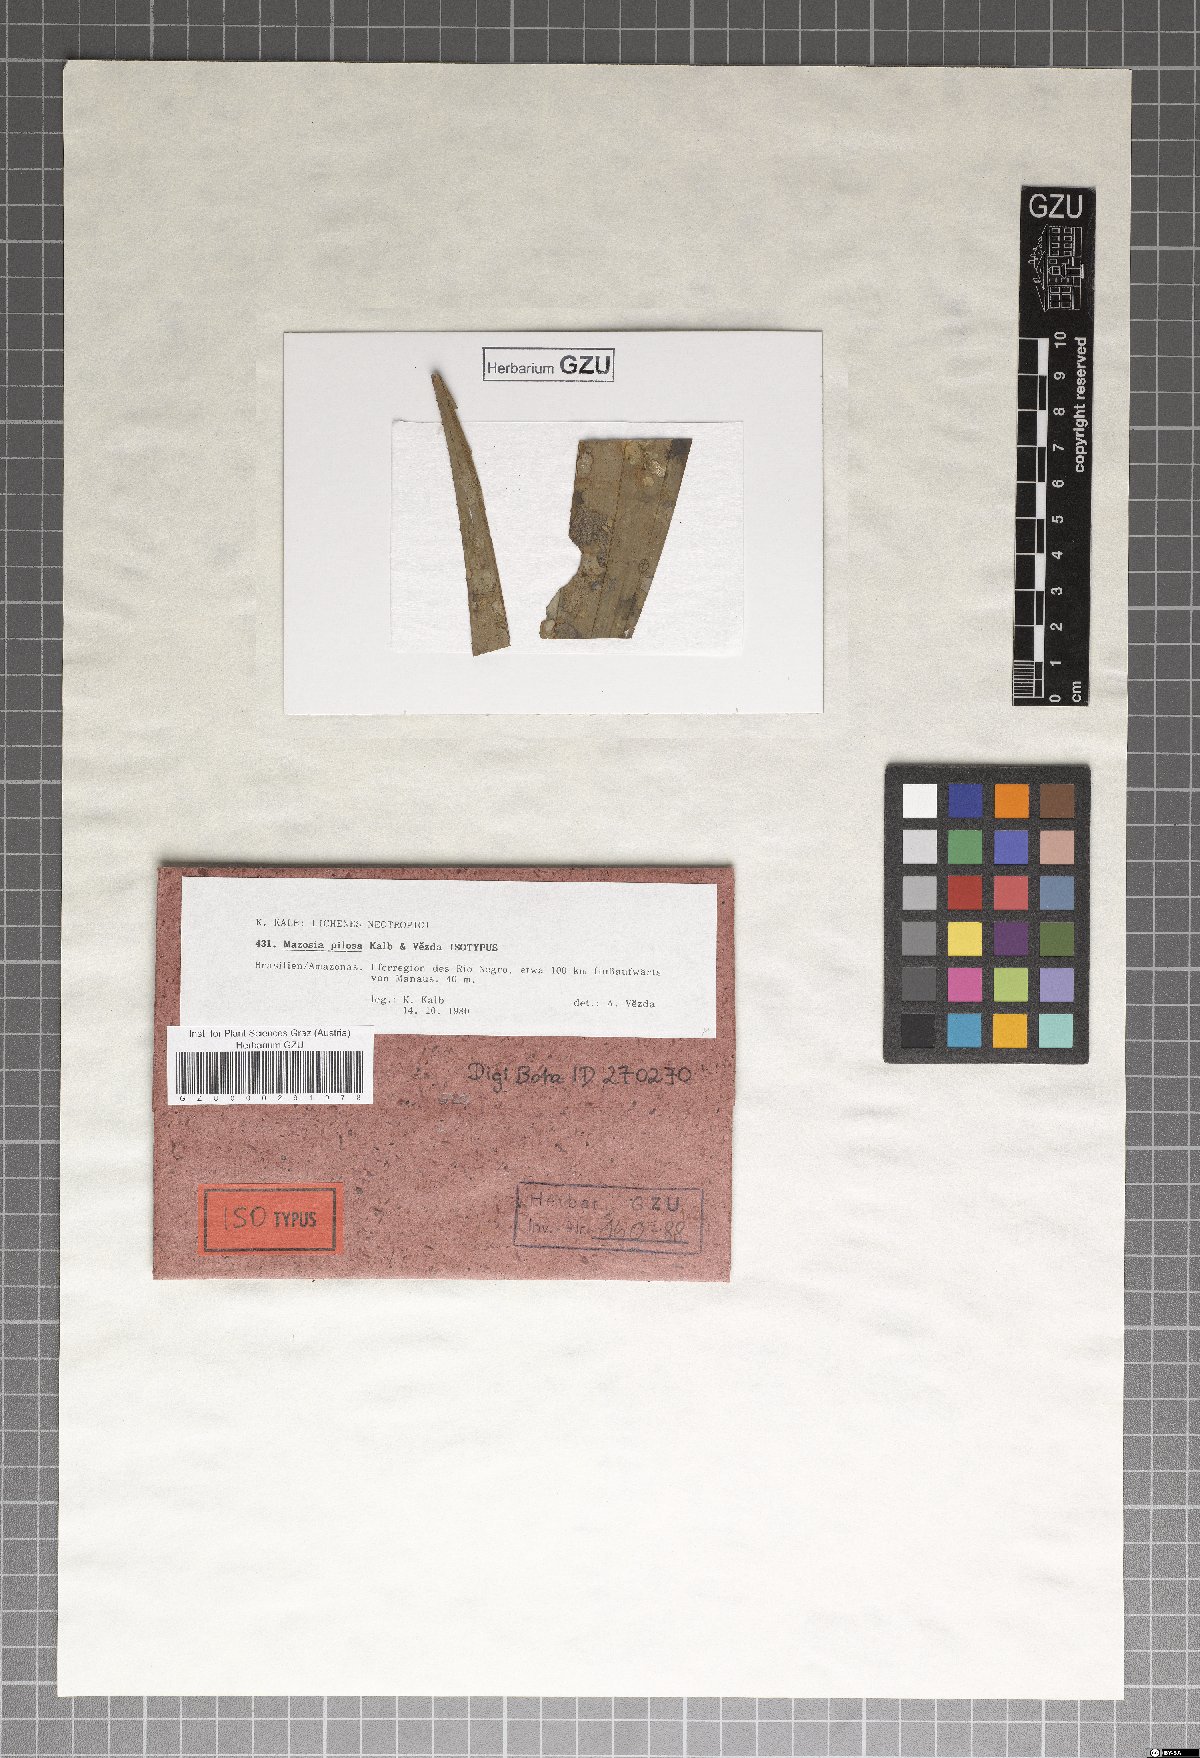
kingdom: Fungi
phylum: Ascomycota
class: Arthoniomycetes
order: Arthoniales
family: Roccellaceae
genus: Mazosia
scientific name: Mazosia pilosa
